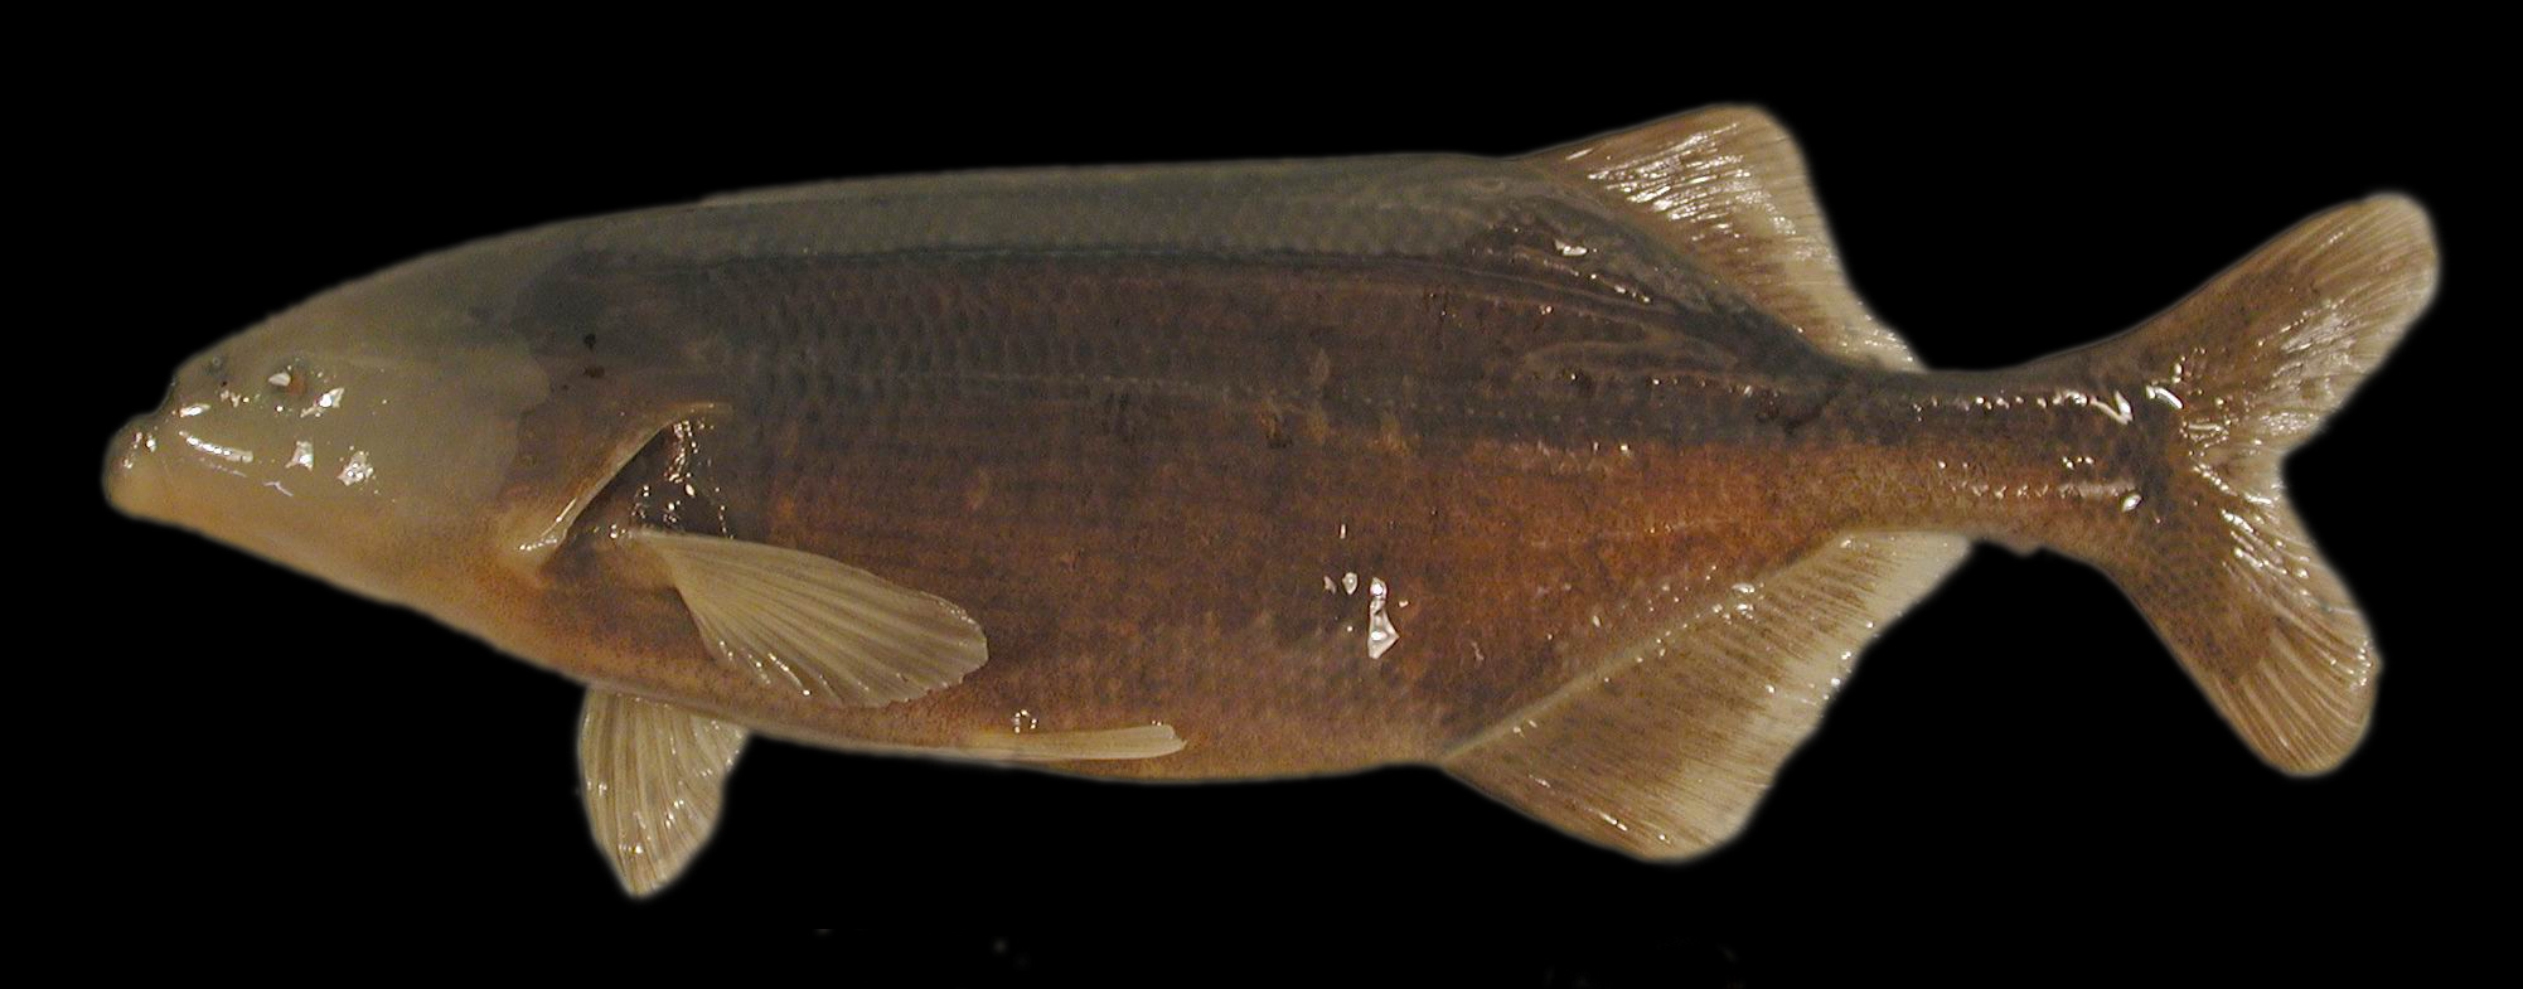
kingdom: Animalia
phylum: Chordata
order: Osteoglossiformes
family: Mormyridae
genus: Marcusenius
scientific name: Marcusenius macrolepidotus
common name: Bulldog
